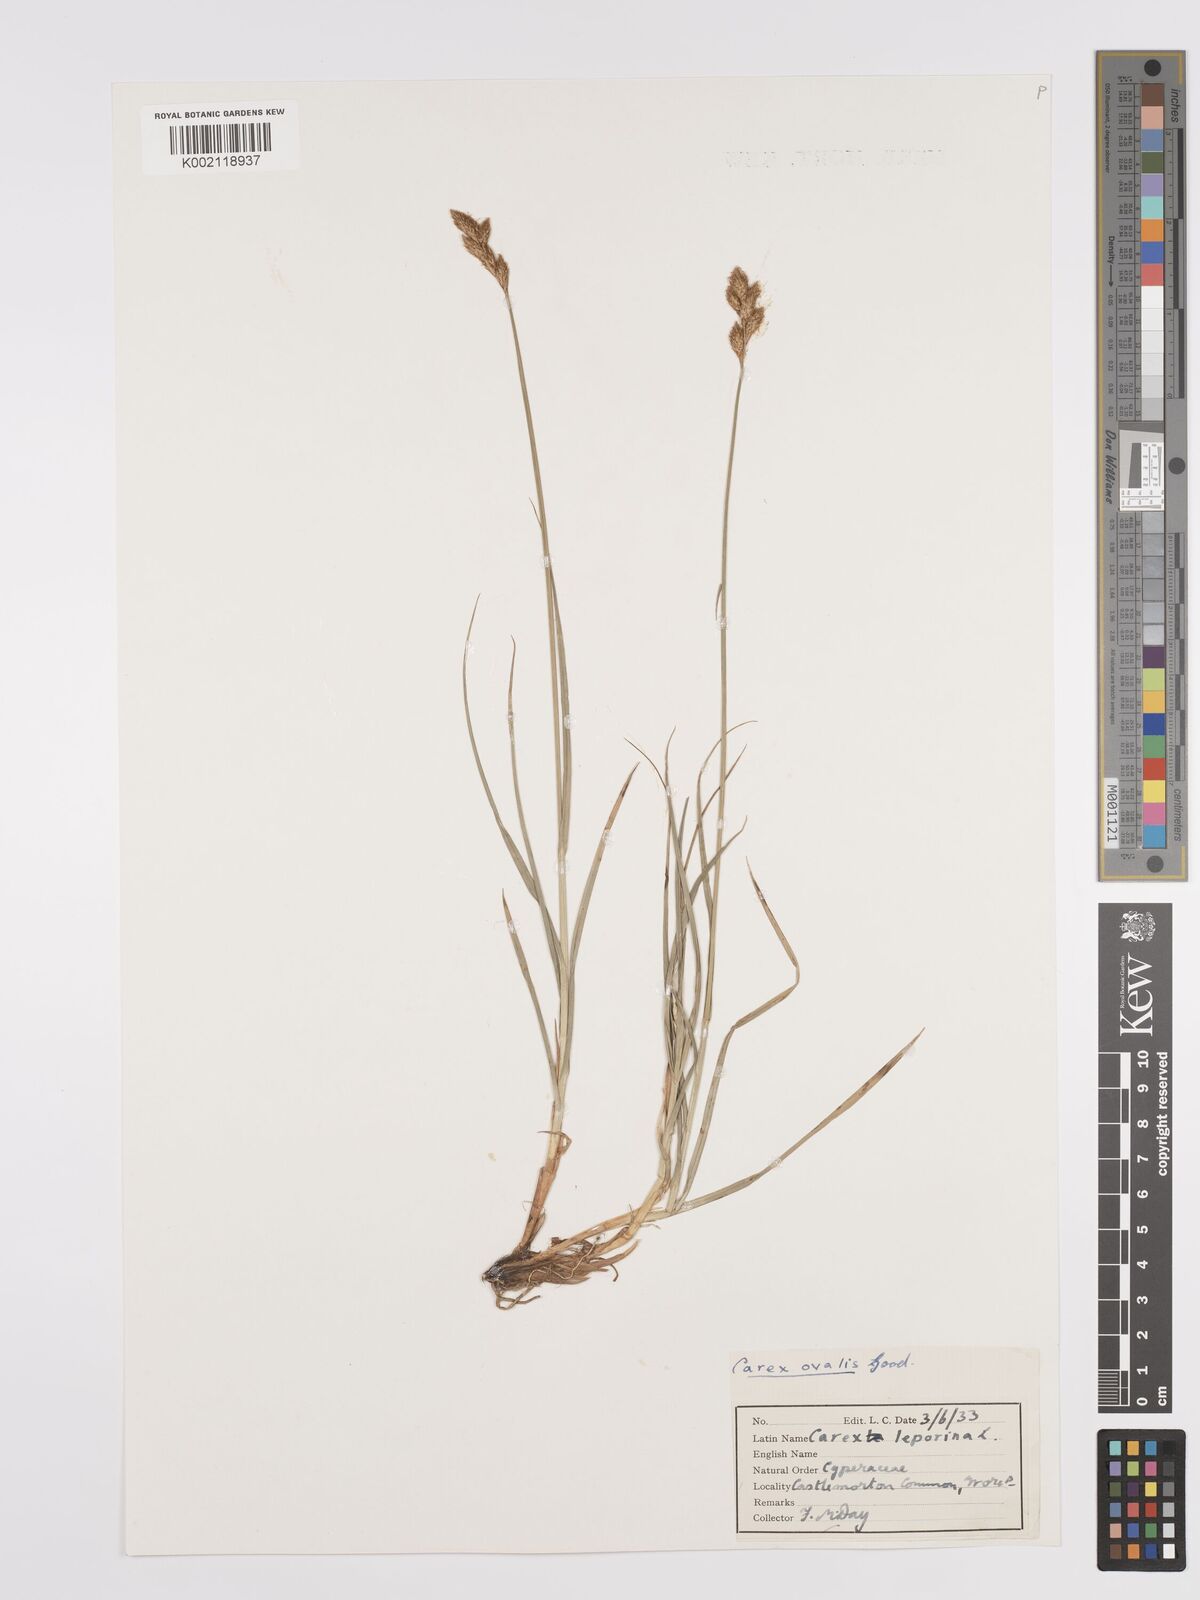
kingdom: Plantae
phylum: Tracheophyta
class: Liliopsida
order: Poales
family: Cyperaceae
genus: Carex
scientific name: Carex leporina
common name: Oval sedge
